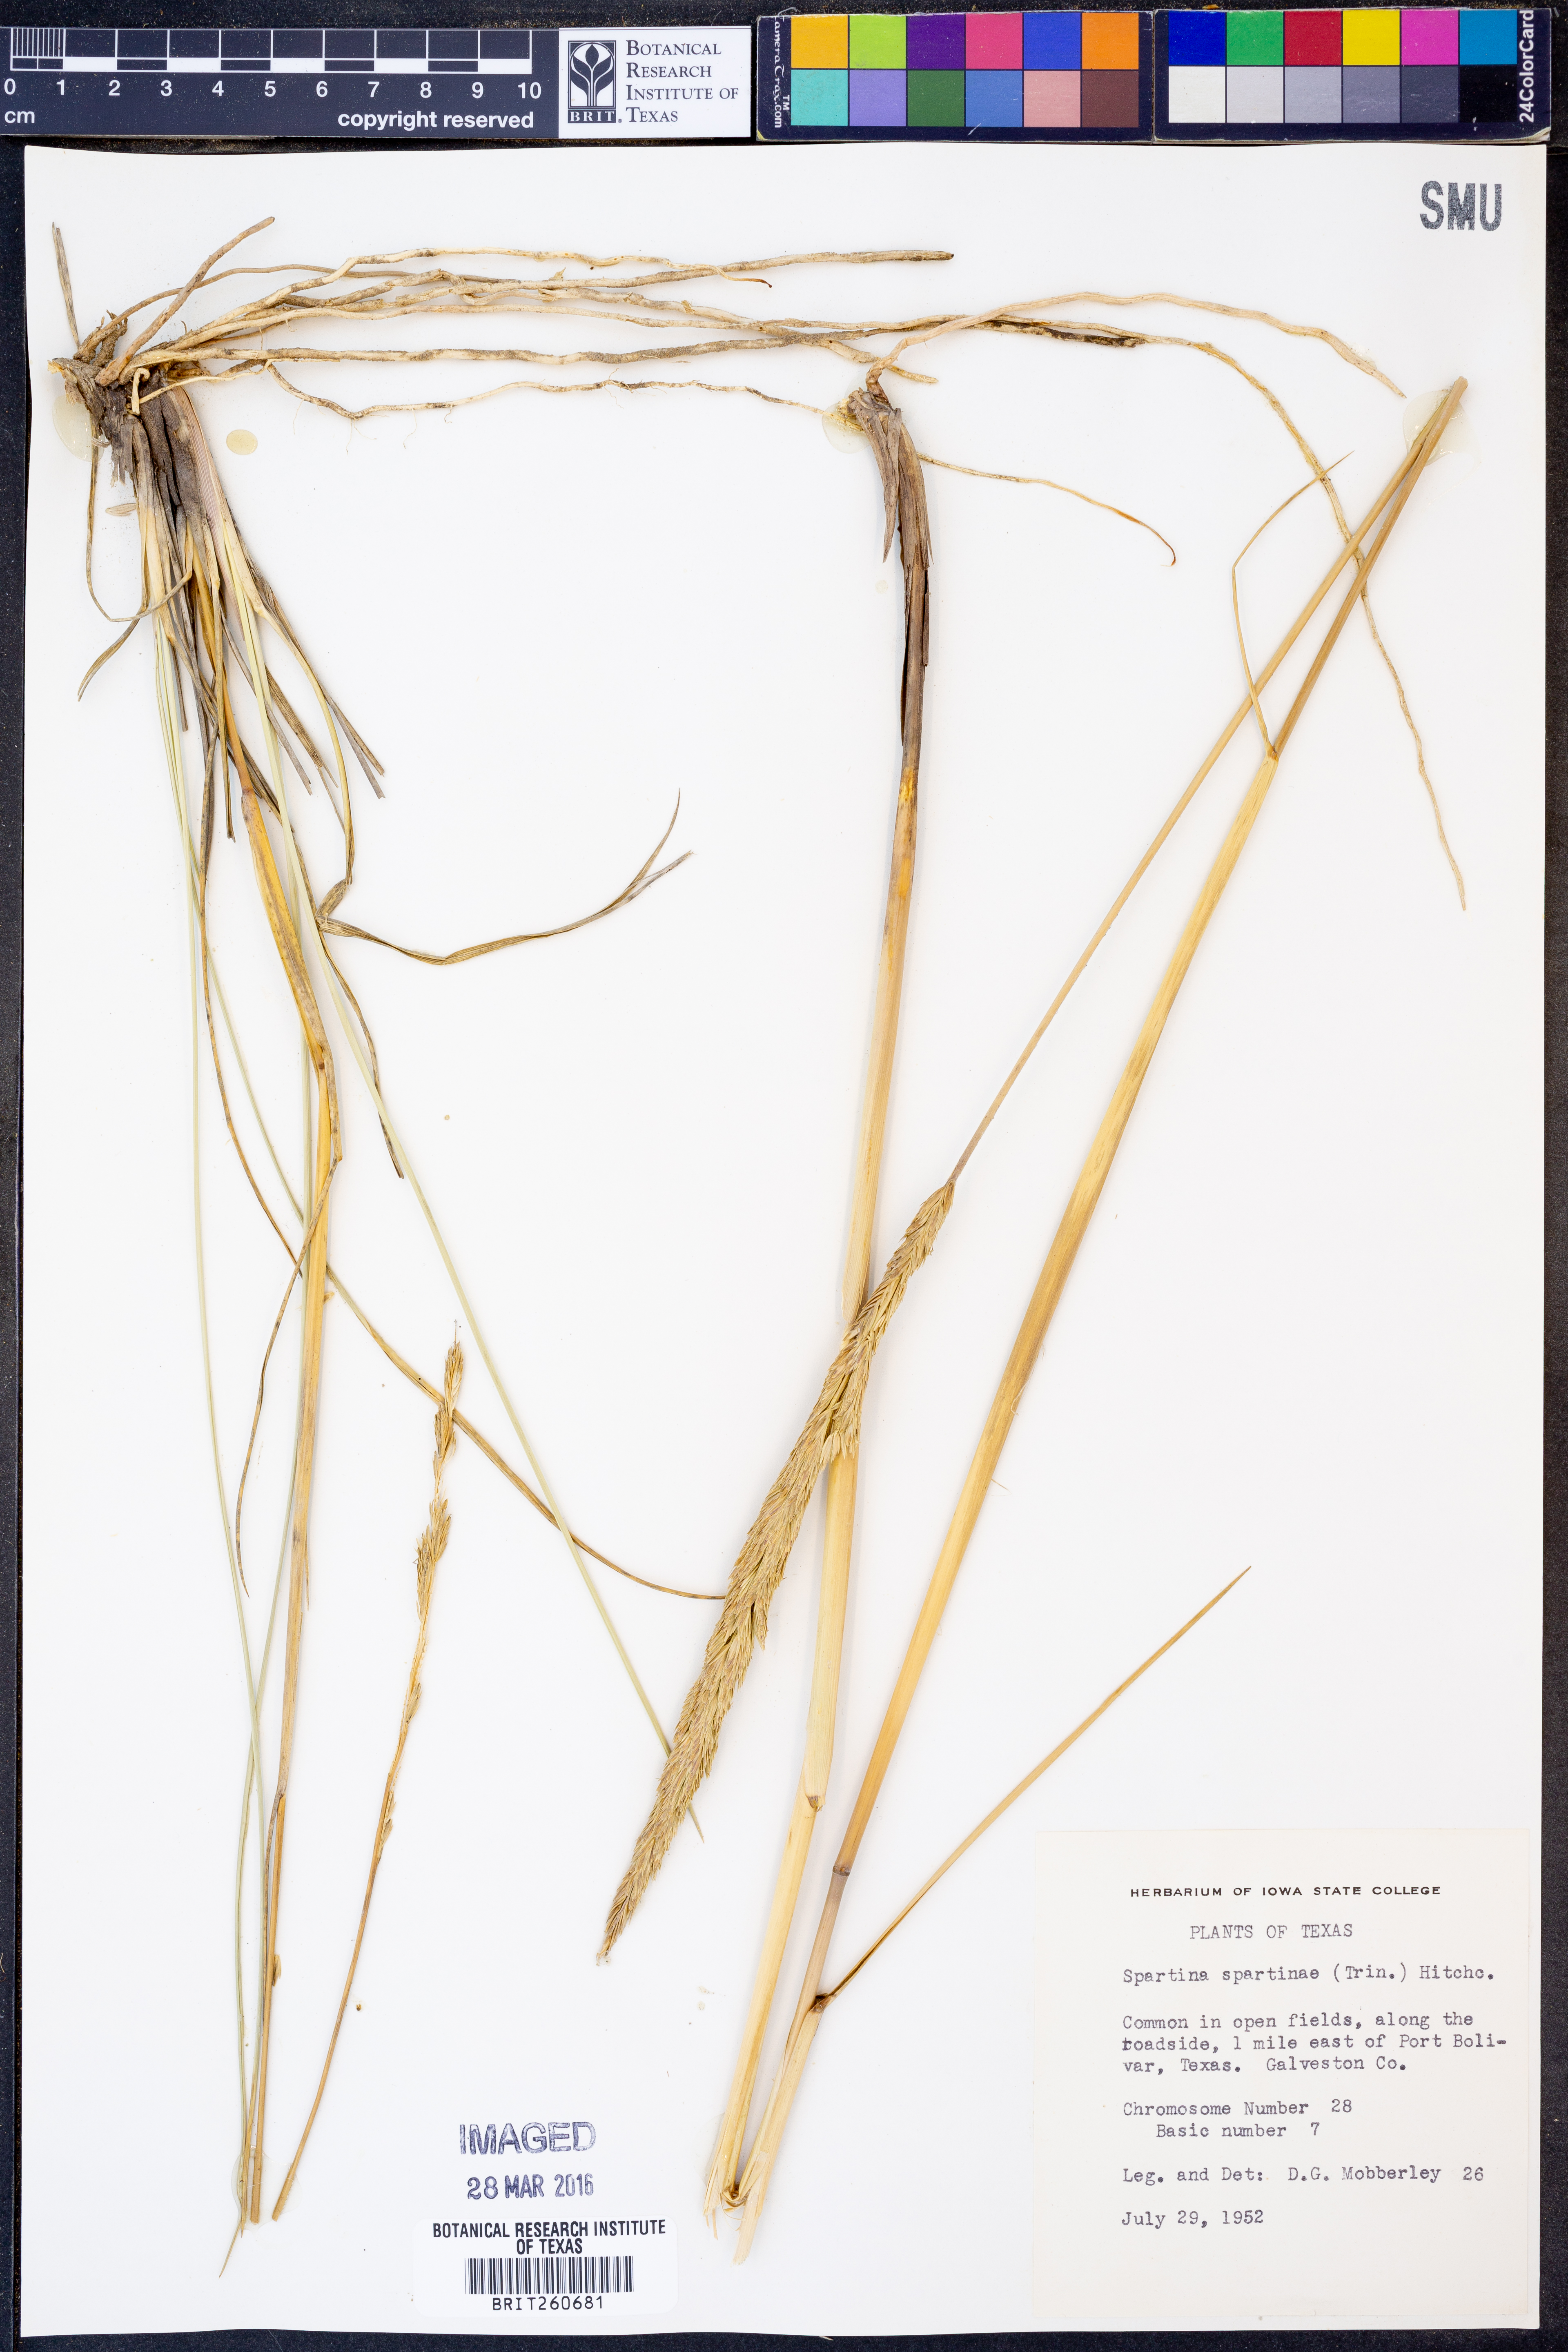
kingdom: Plantae
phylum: Tracheophyta
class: Liliopsida
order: Poales
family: Poaceae
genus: Sporobolus
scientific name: Sporobolus spartinae
